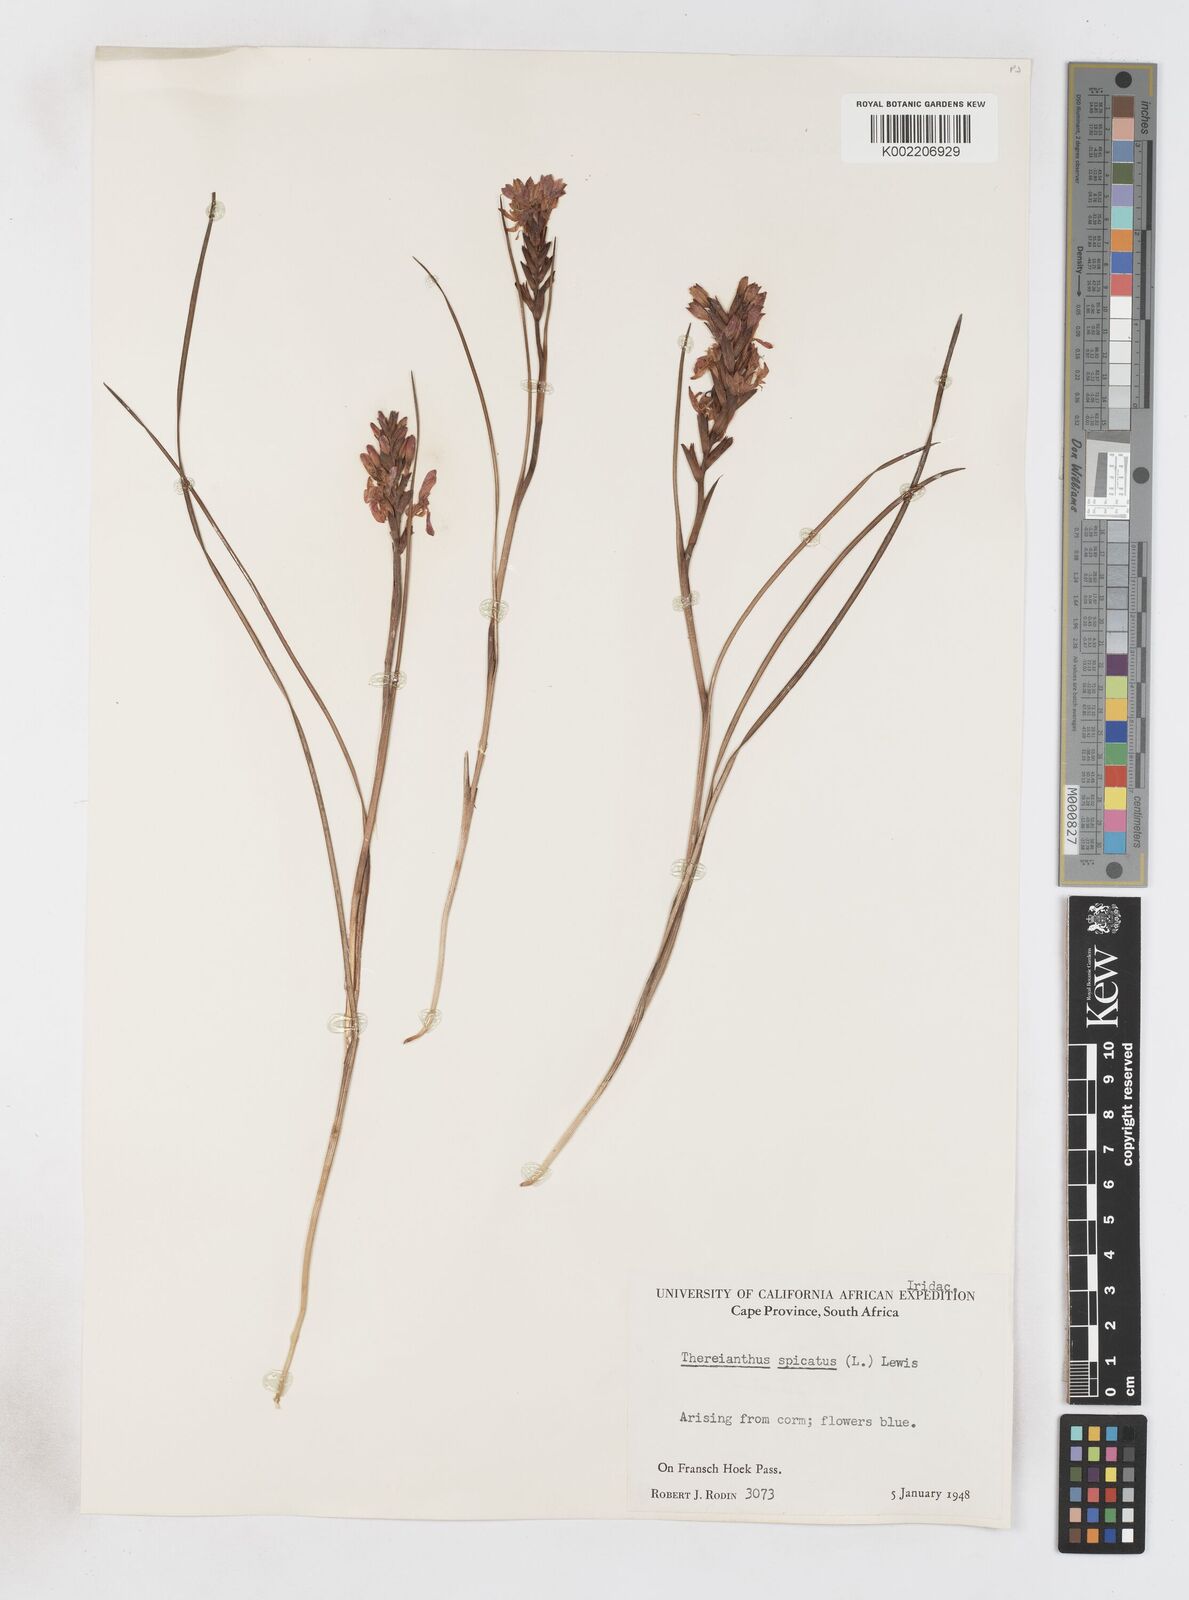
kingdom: Plantae
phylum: Tracheophyta
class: Liliopsida
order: Asparagales
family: Iridaceae
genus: Thereianthus
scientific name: Thereianthus spicatus
